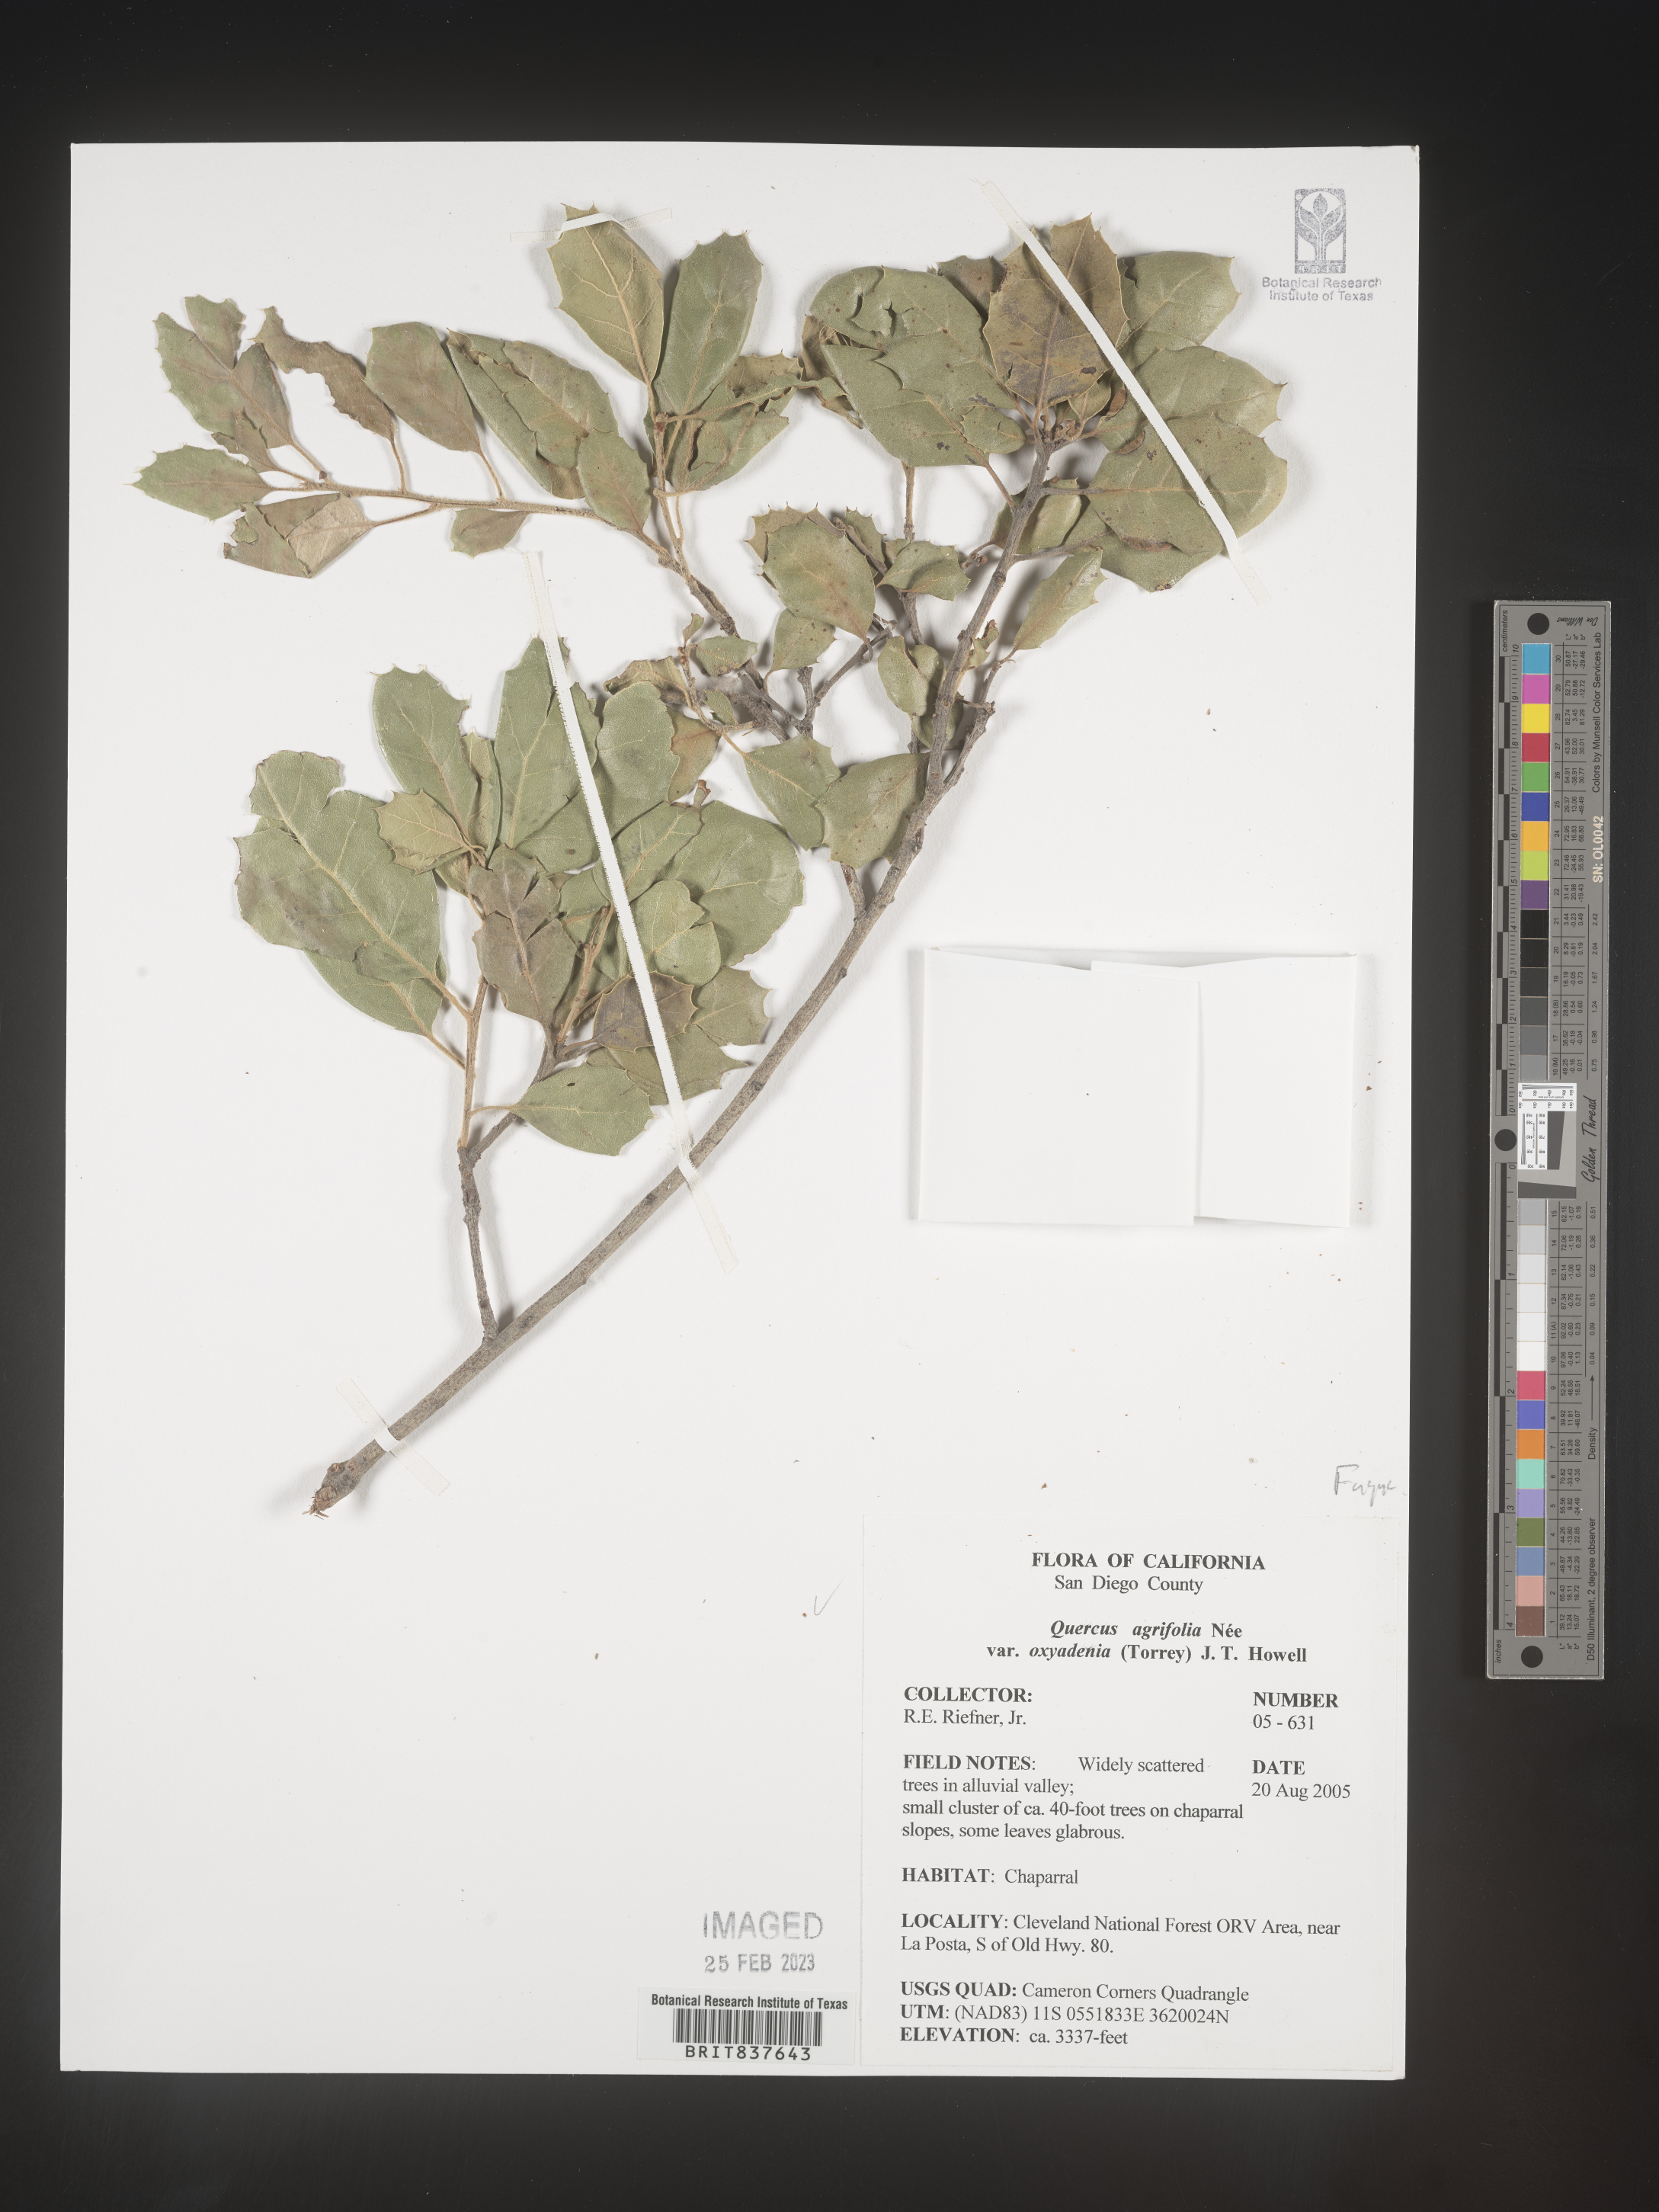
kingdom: Plantae
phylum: Tracheophyta
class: Magnoliopsida
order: Fagales
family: Fagaceae
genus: Quercus
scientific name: Quercus agrifolia
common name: California live oak
